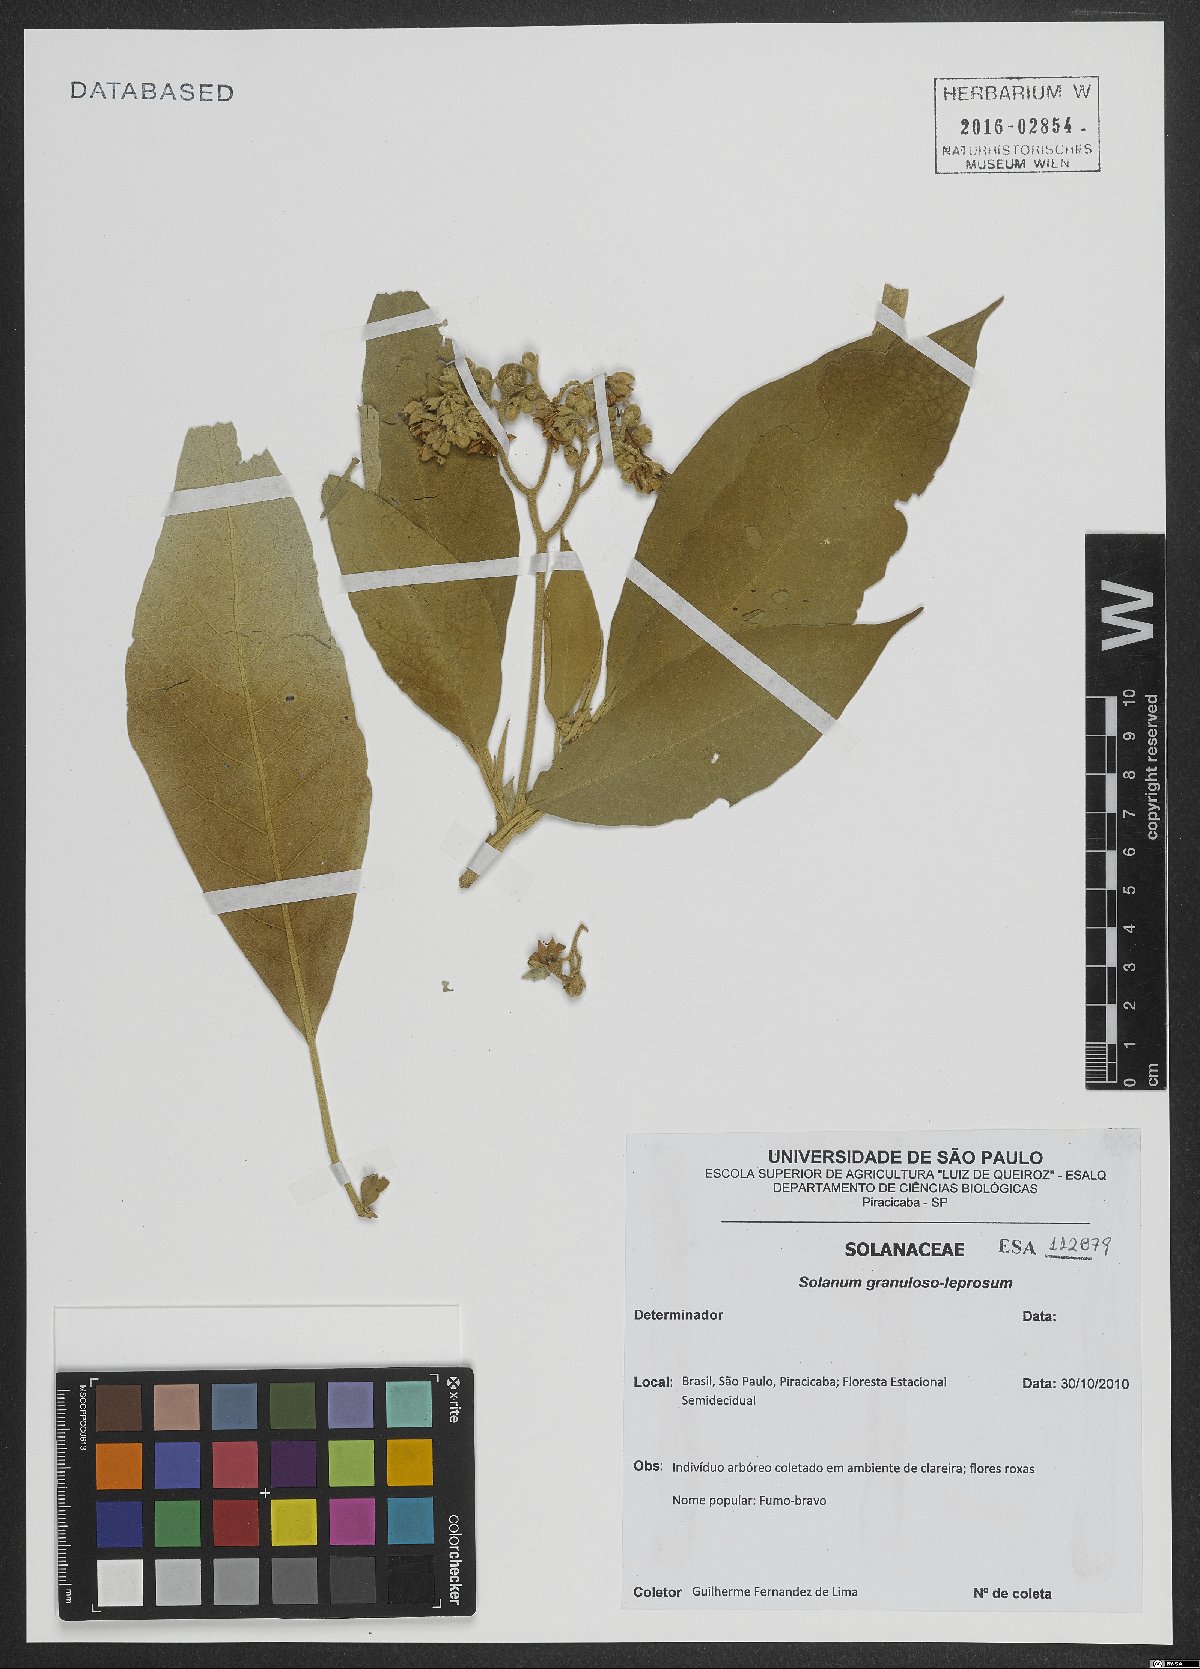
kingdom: Plantae
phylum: Tracheophyta
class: Magnoliopsida
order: Solanales
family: Solanaceae
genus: Solanum
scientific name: Solanum granulosoleprosum
